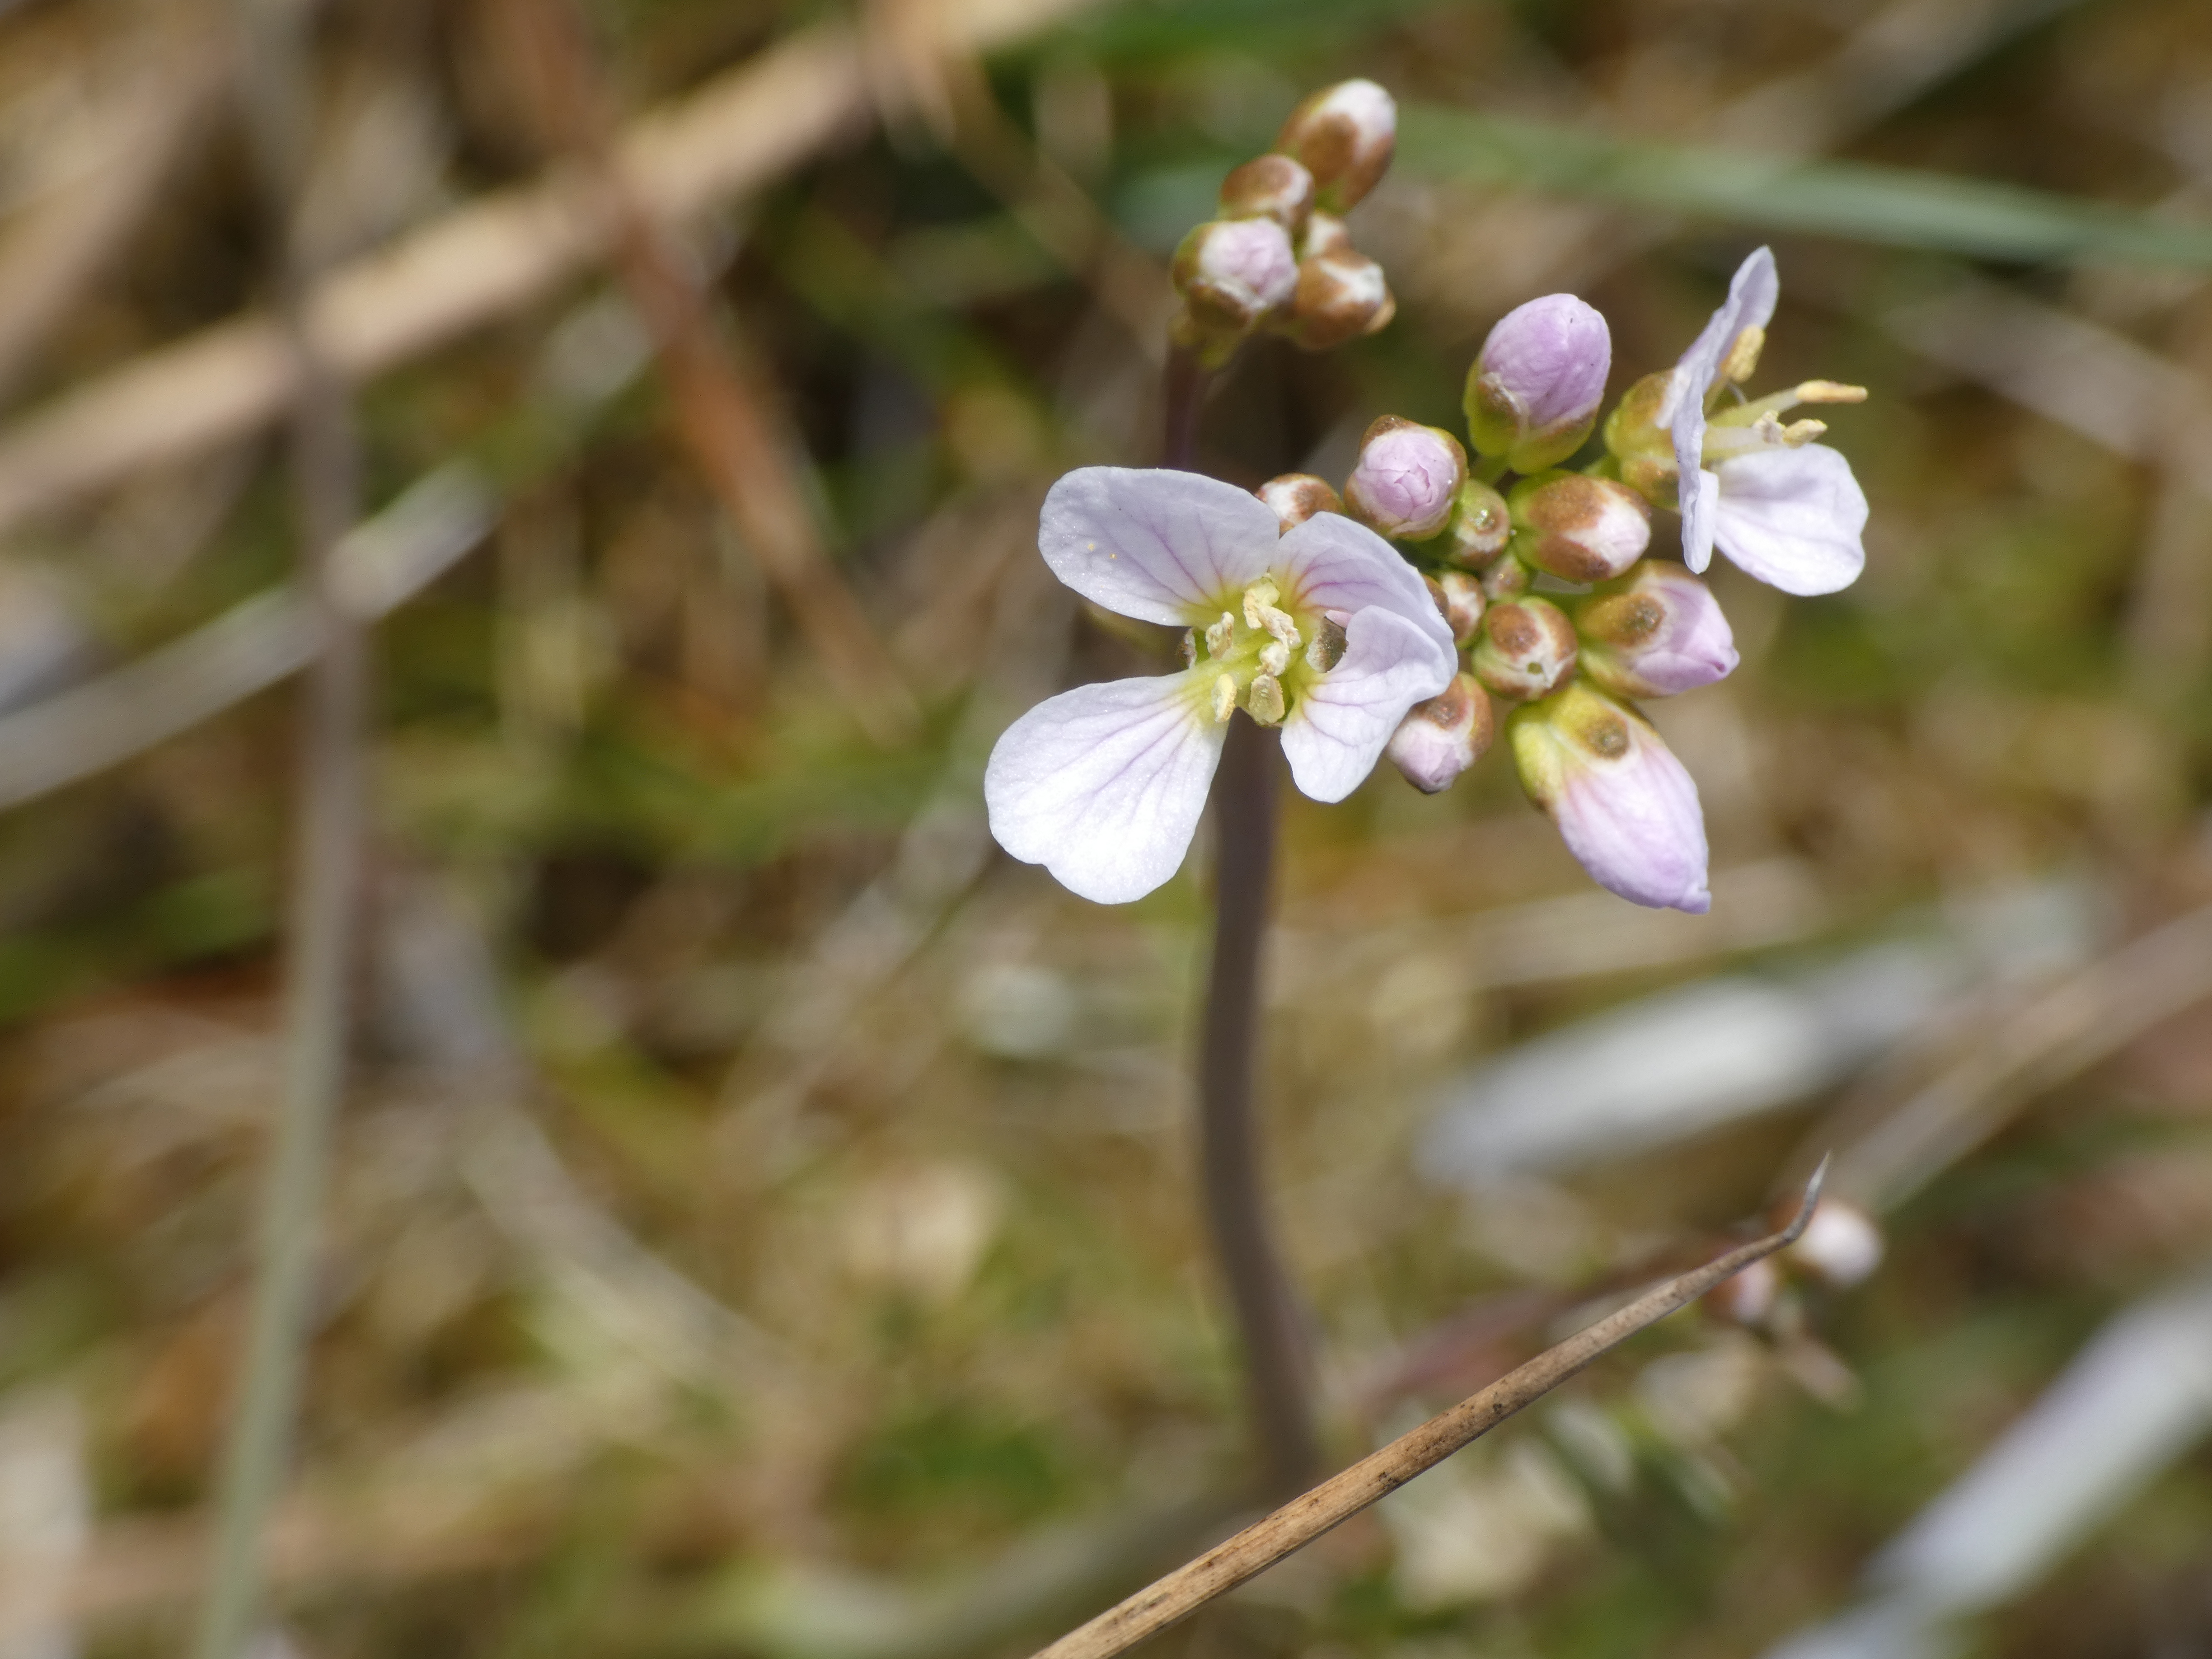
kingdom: Plantae
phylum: Tracheophyta
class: Magnoliopsida
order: Brassicales
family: Brassicaceae
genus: Cardamine
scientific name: Cardamine pratensis
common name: Engkarse
